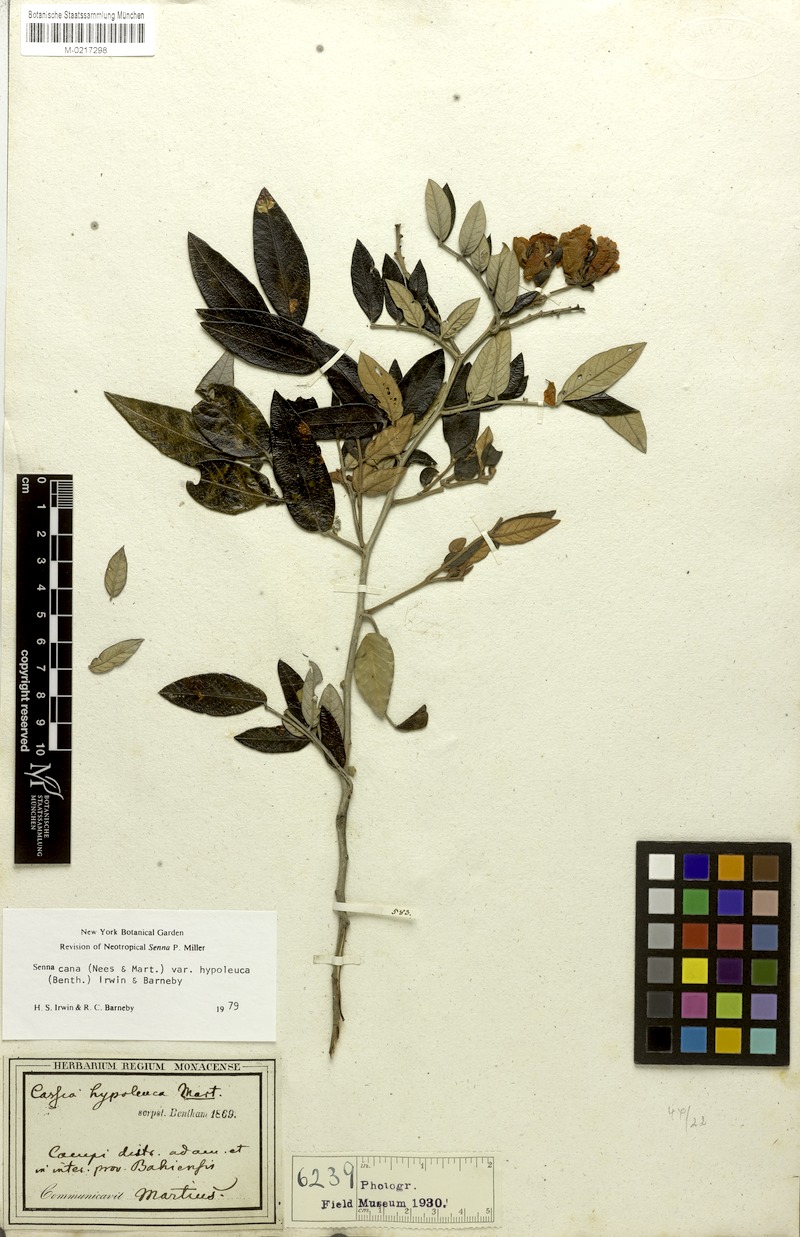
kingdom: Plantae
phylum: Tracheophyta
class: Magnoliopsida
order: Fabales
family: Fabaceae
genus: Senna
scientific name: Senna cana
